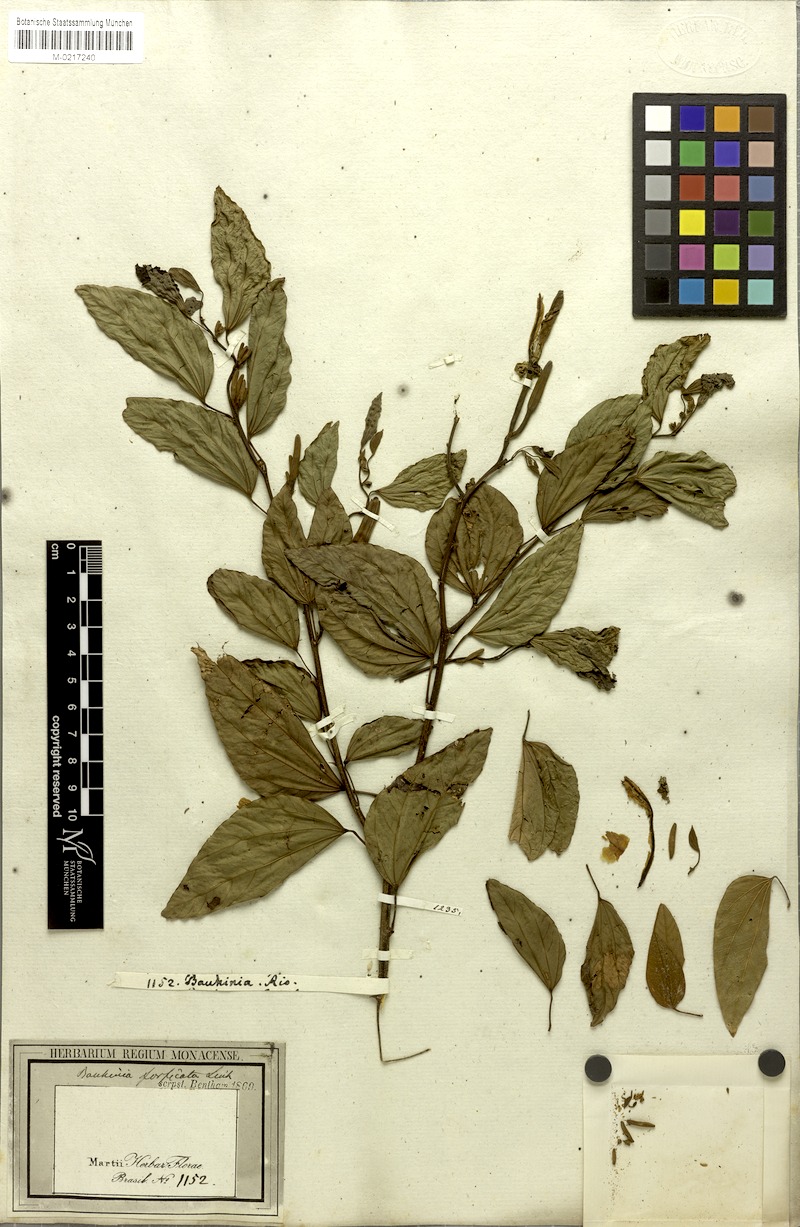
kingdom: Plantae
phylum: Tracheophyta
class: Magnoliopsida
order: Fabales
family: Fabaceae
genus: Bauhinia
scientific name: Bauhinia forficata
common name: Orchid tree
